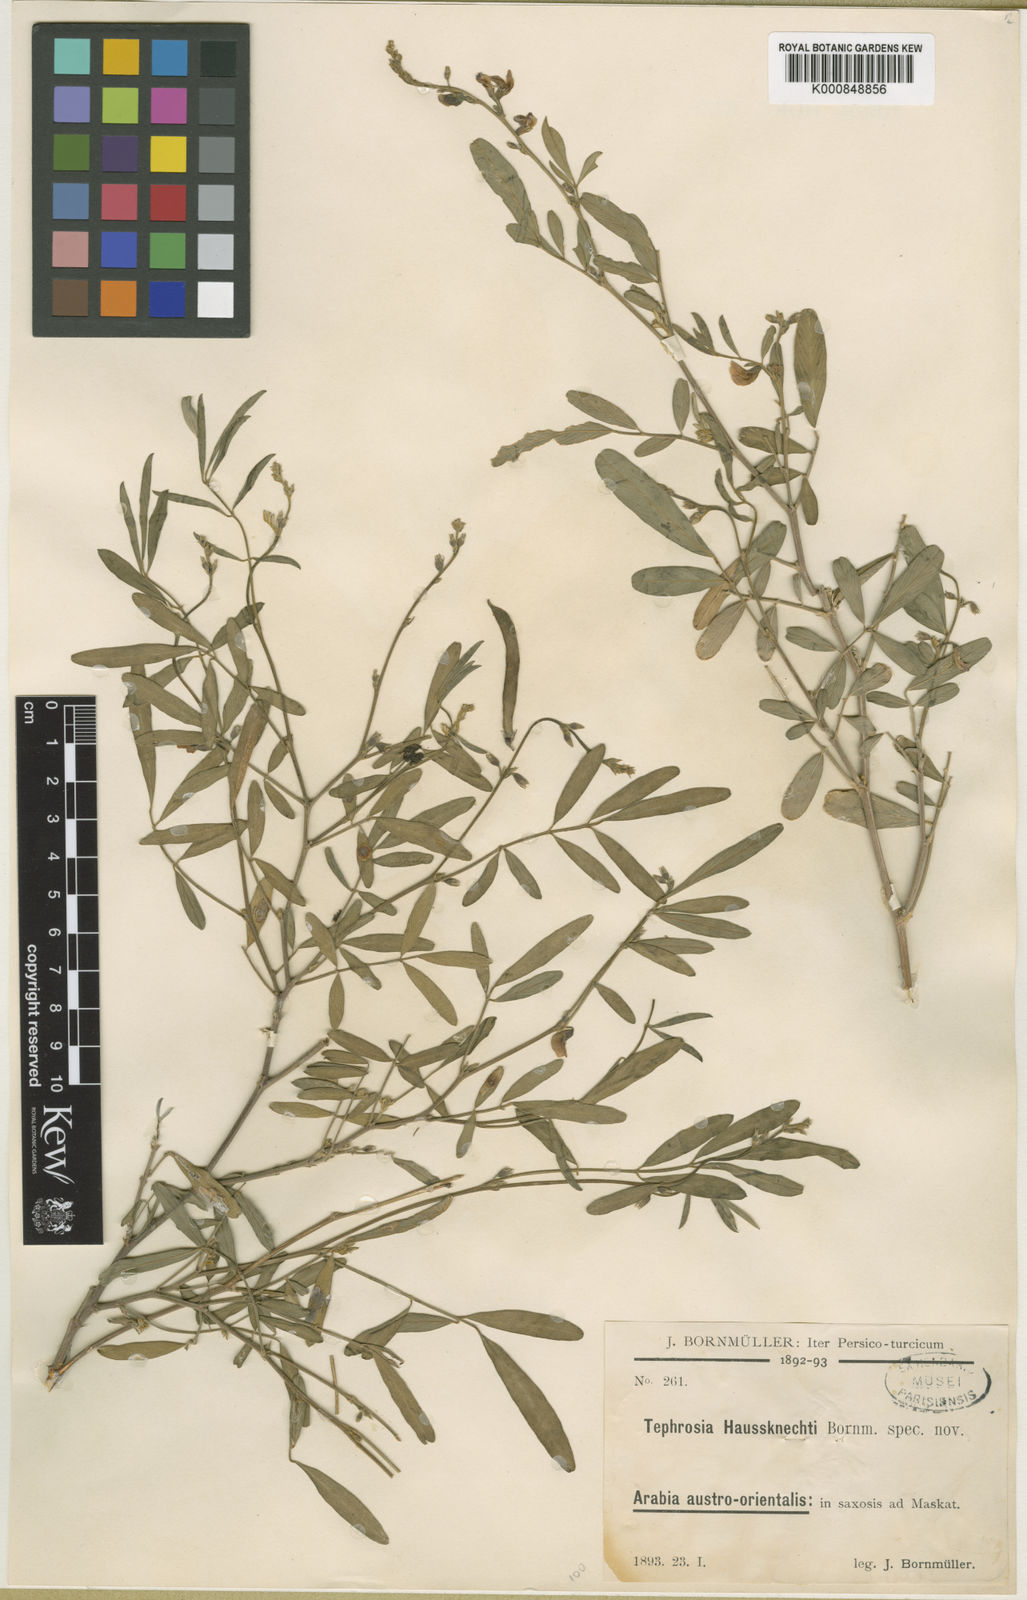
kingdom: Plantae
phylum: Tracheophyta
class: Magnoliopsida
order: Fabales
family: Fabaceae
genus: Tephrosia
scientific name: Tephrosia haussknechtii
